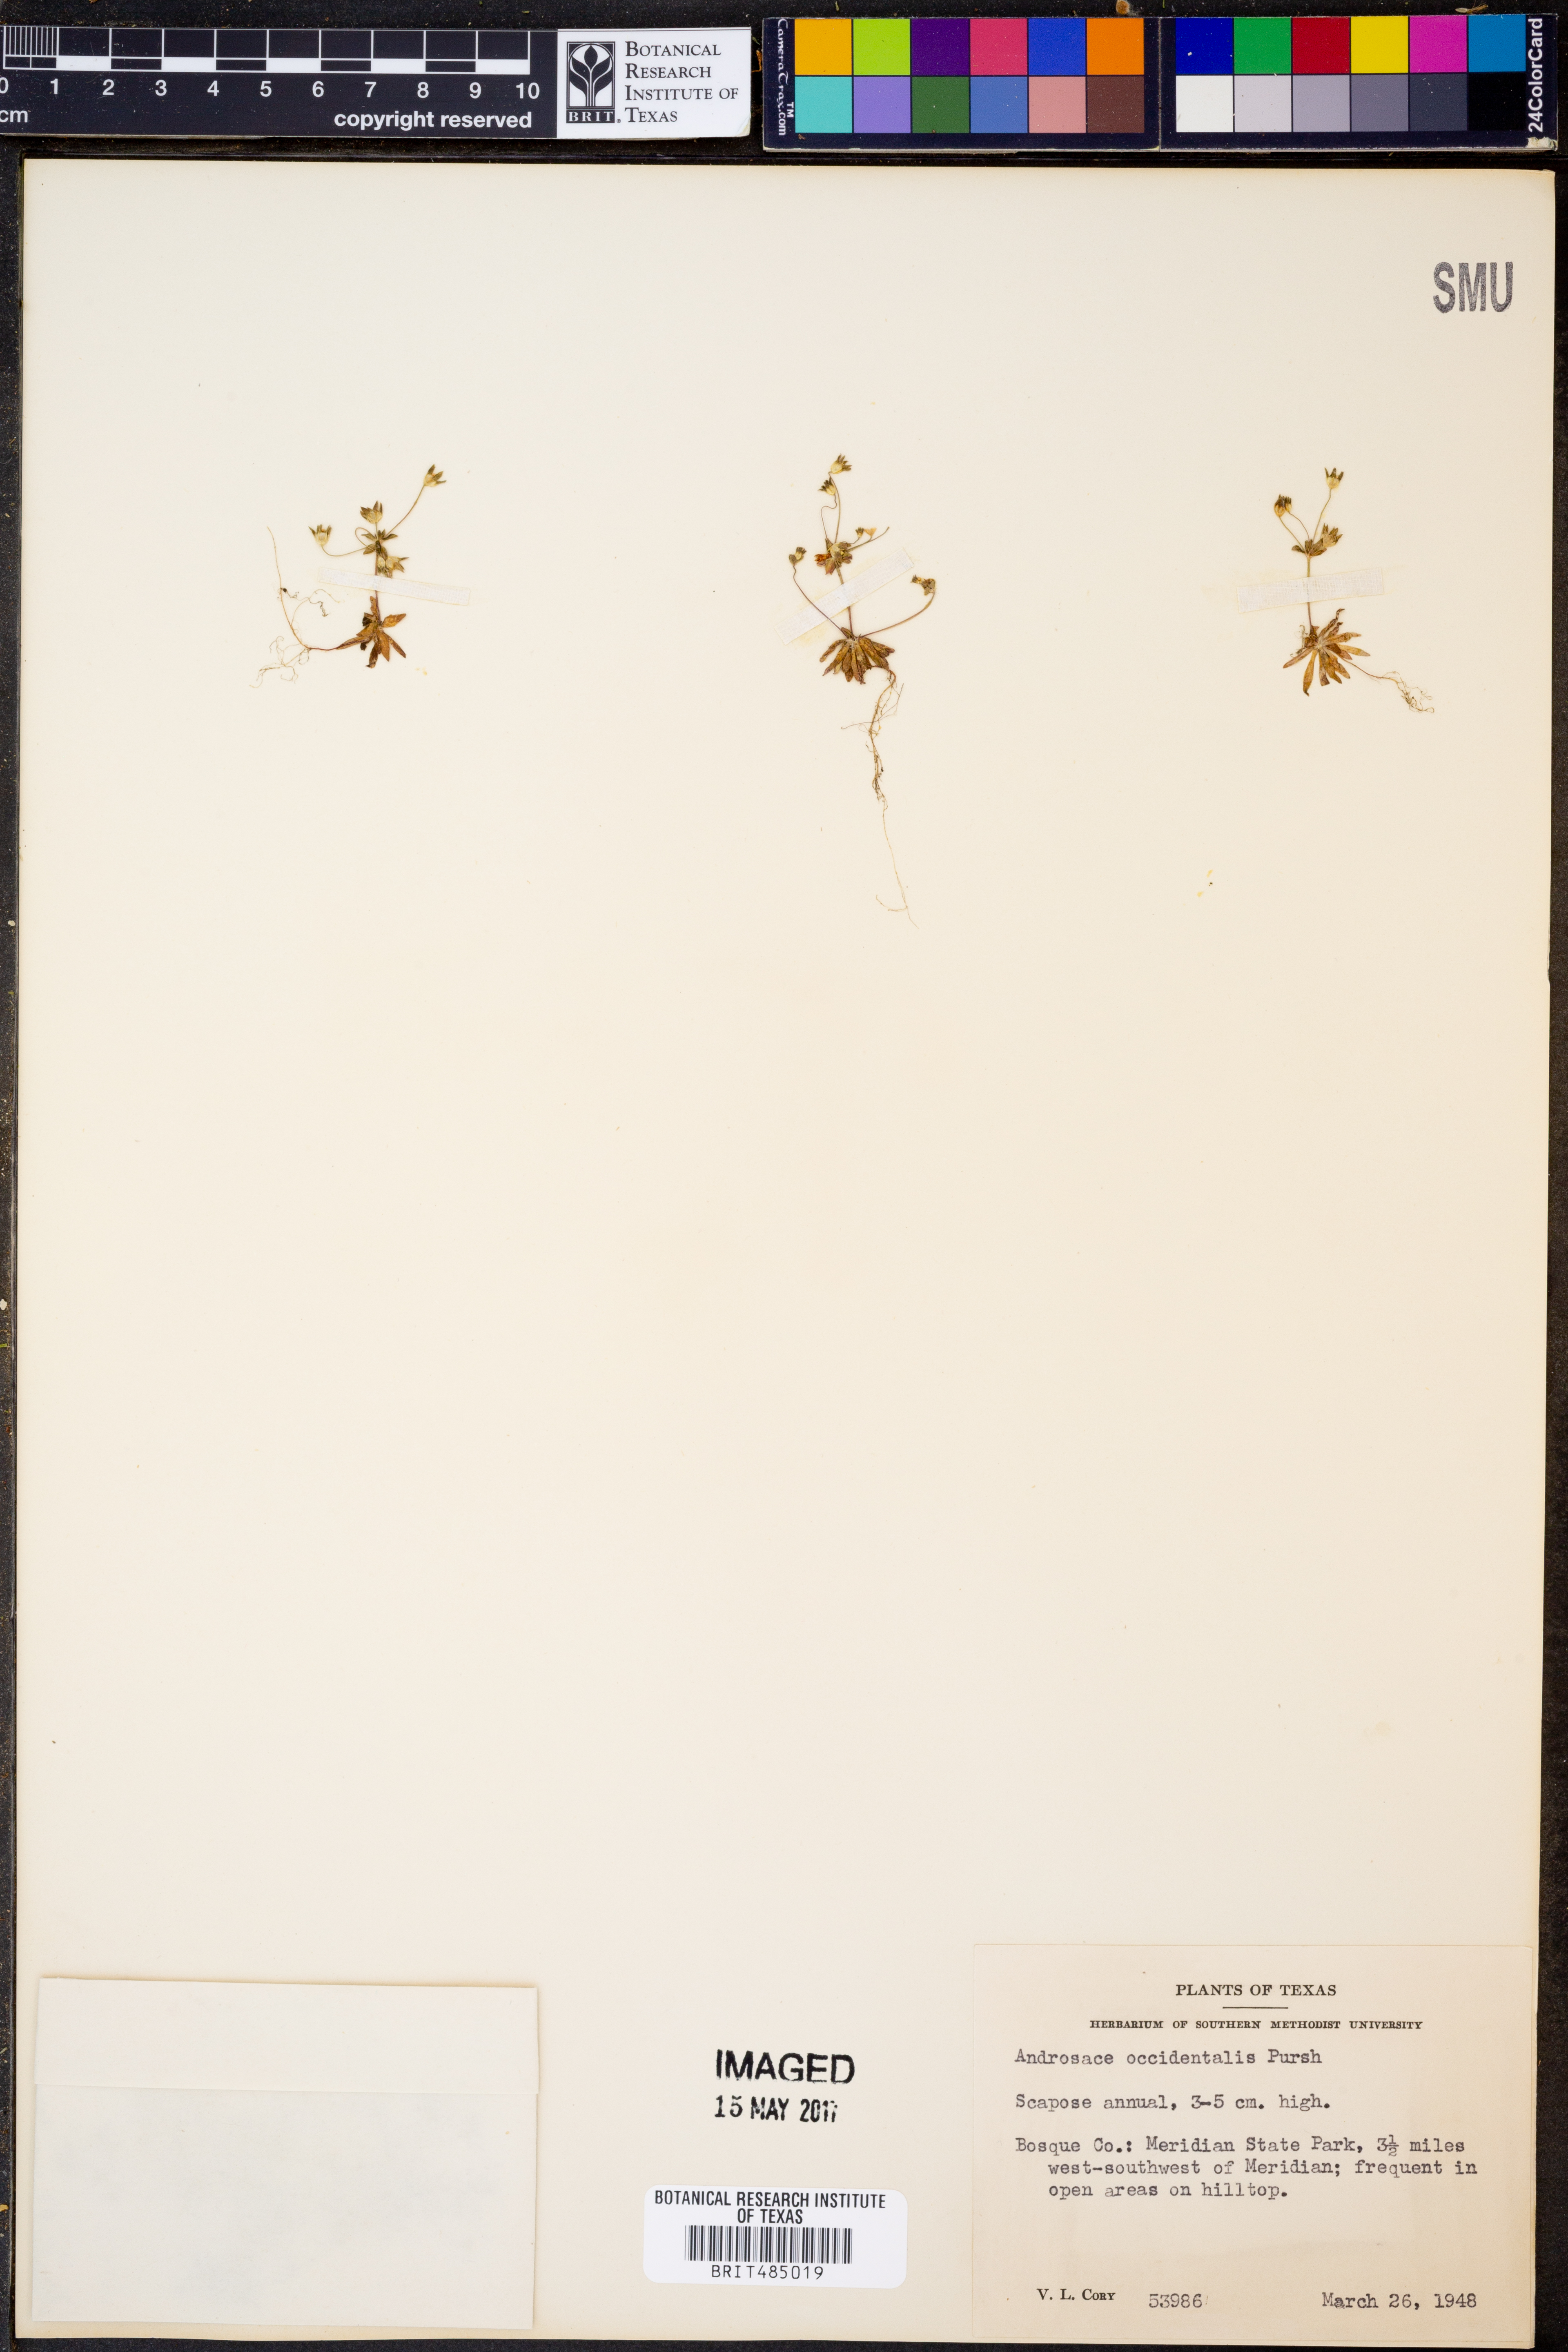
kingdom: Plantae
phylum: Tracheophyta
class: Magnoliopsida
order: Ericales
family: Primulaceae
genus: Androsace
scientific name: Androsace occidentalis
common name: West rock-jasmine
